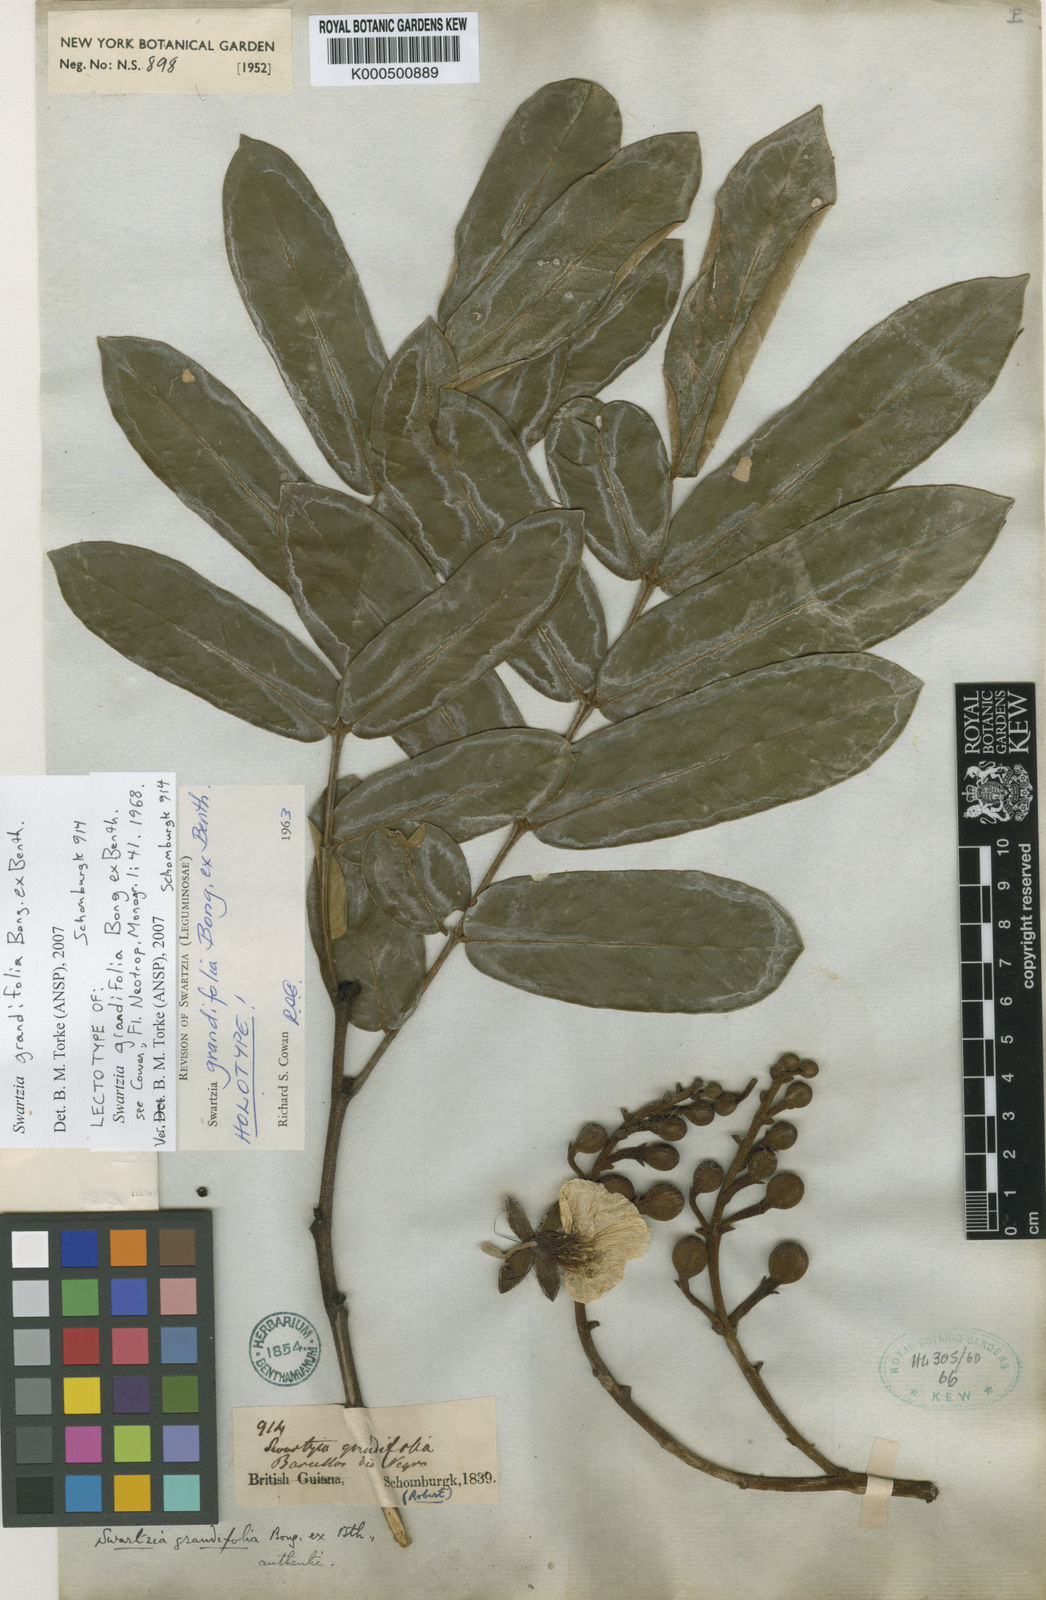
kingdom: Plantae
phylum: Tracheophyta
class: Magnoliopsida
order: Fabales
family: Fabaceae
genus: Swartzia
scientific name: Swartzia grandifolia
